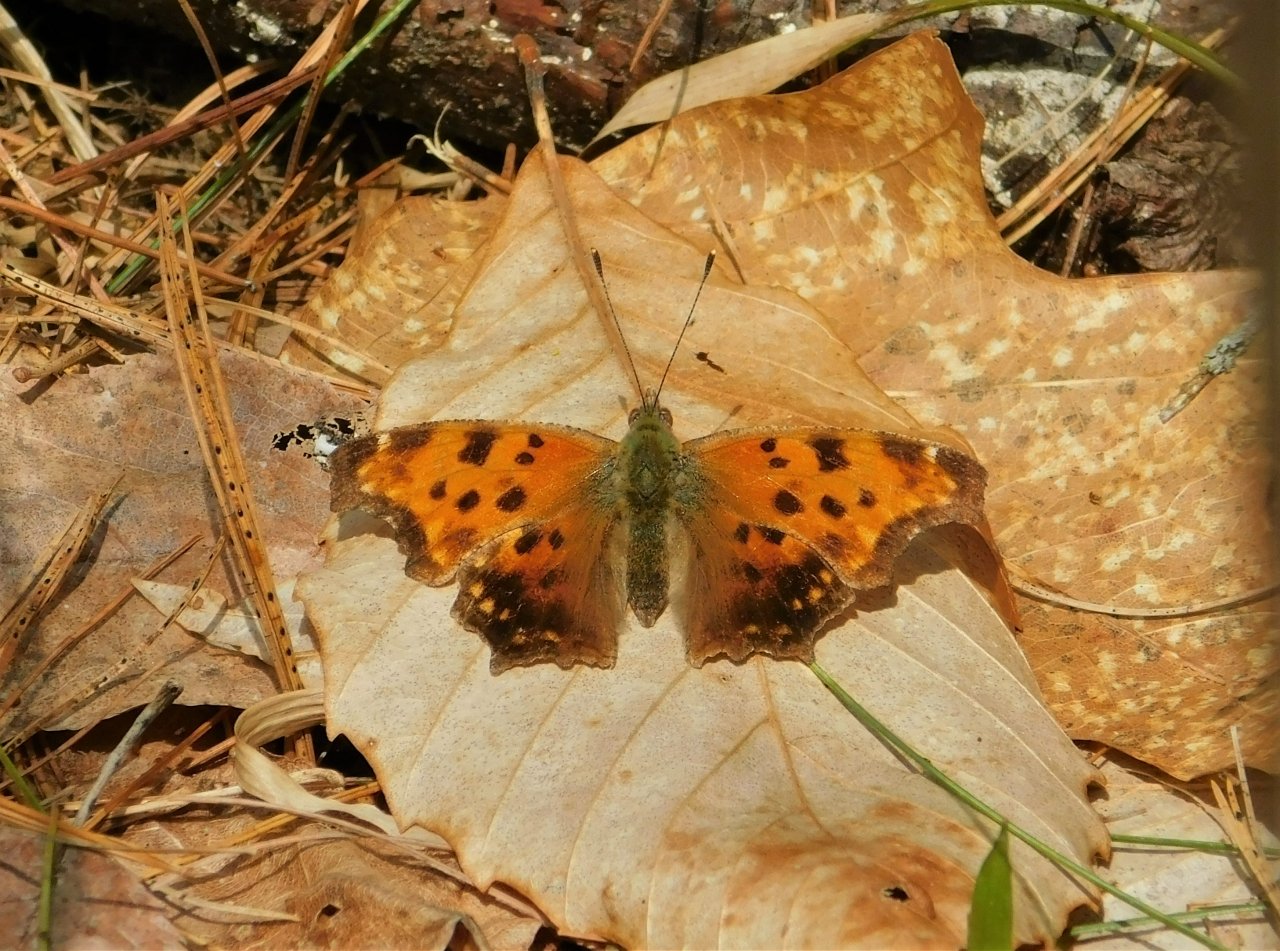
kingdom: Animalia
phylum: Arthropoda
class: Insecta
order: Lepidoptera
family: Nymphalidae
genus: Polygonia
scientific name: Polygonia comma
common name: Eastern Comma
